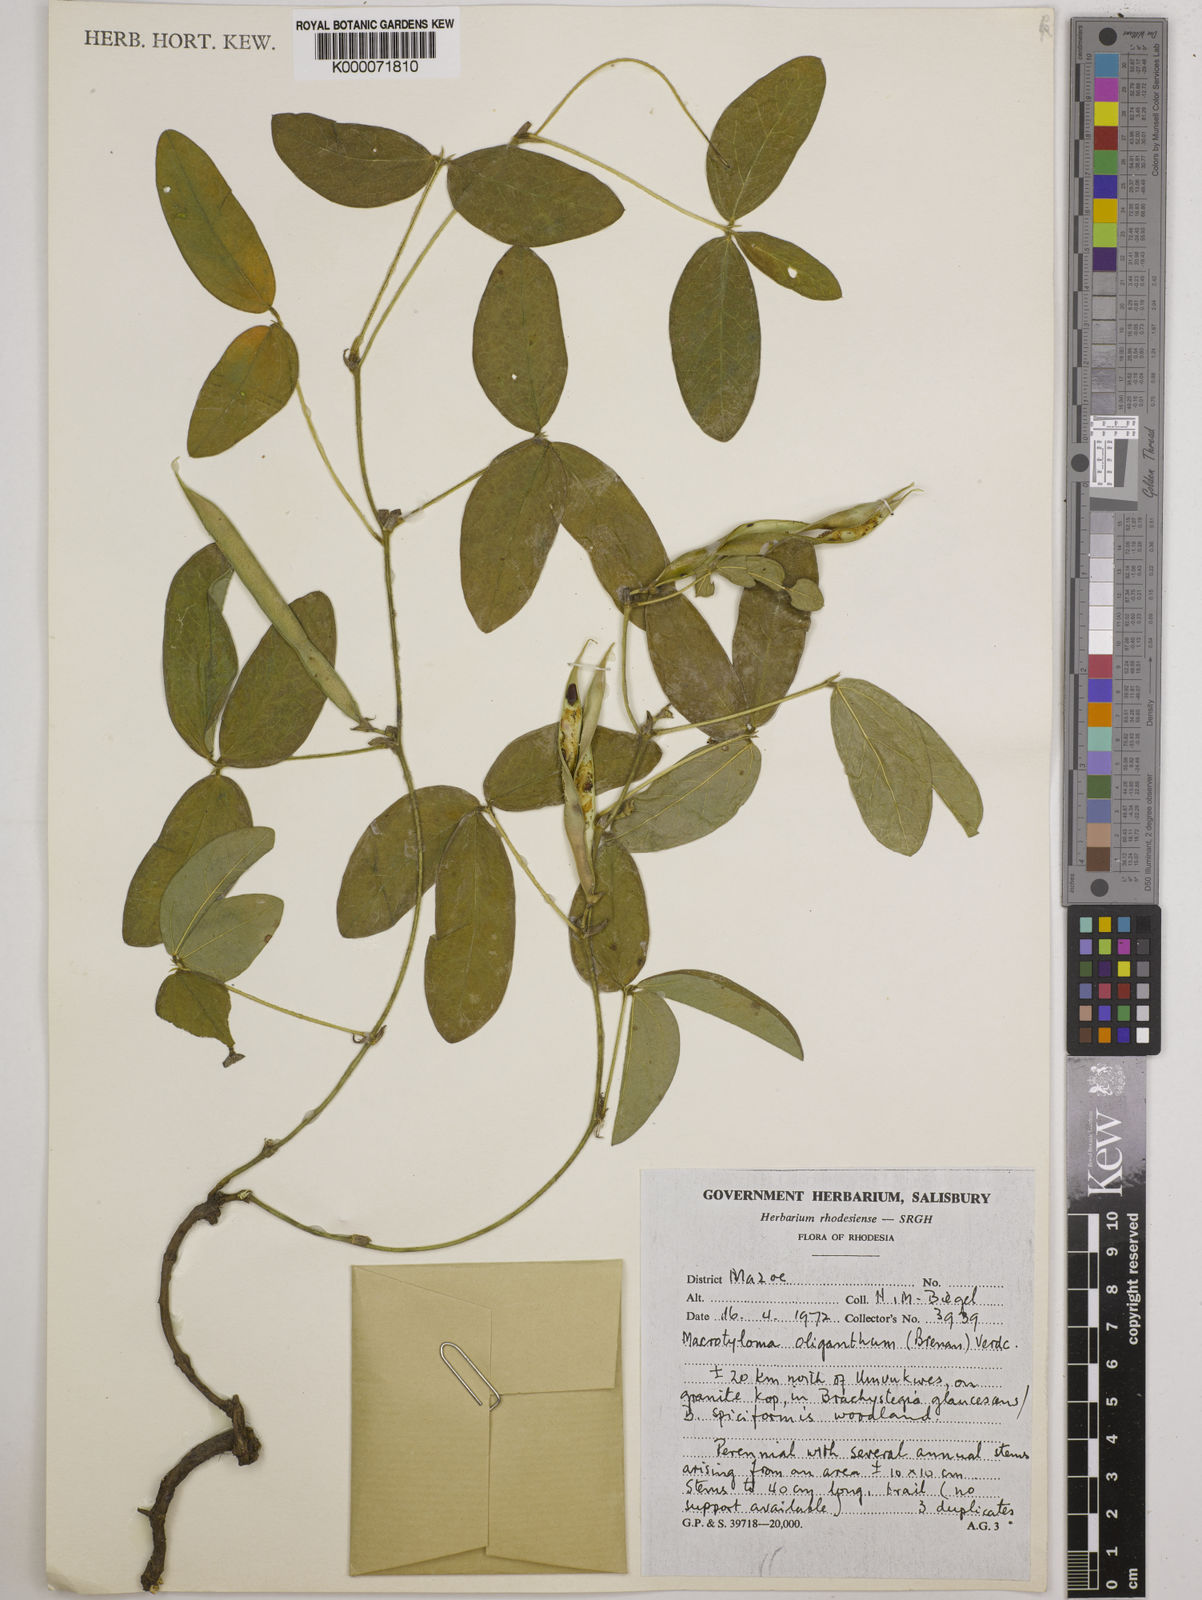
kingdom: Plantae
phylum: Tracheophyta
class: Magnoliopsida
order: Fabales
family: Fabaceae
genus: Macrotyloma
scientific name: Macrotyloma oliganthum
